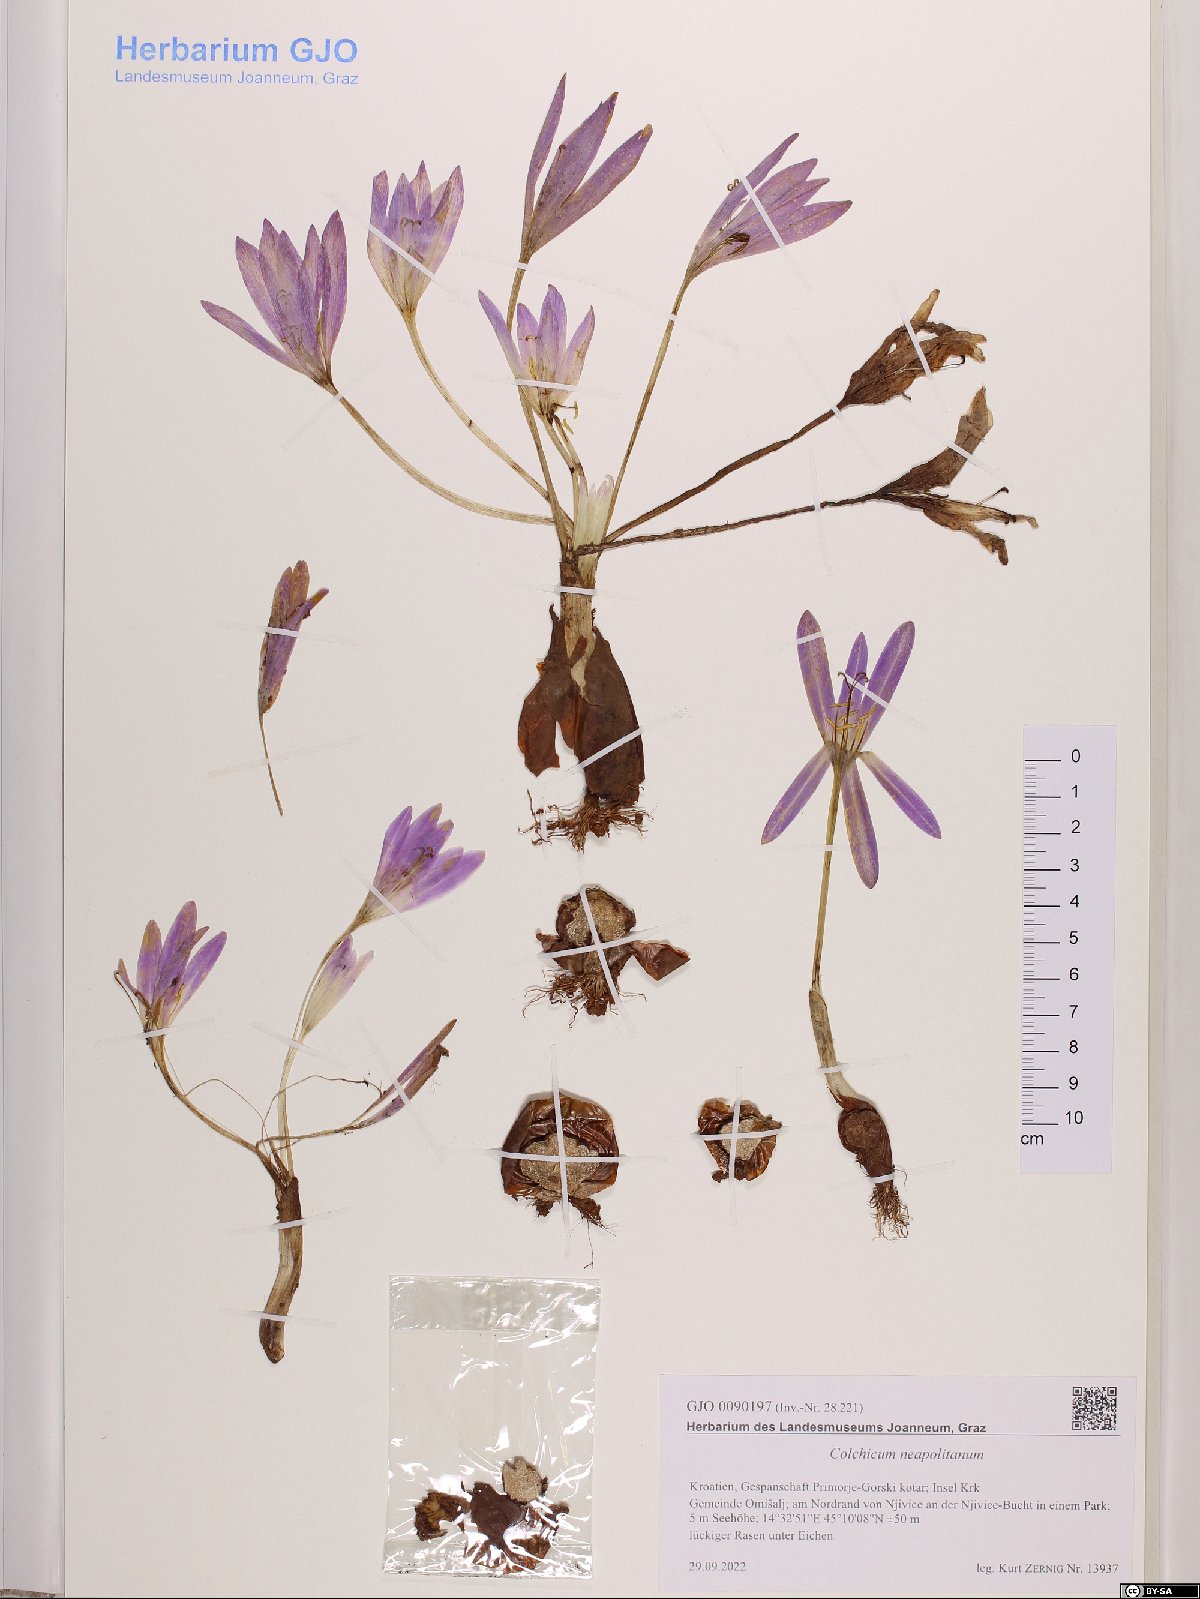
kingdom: Plantae
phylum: Tracheophyta
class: Liliopsida
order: Liliales
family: Colchicaceae
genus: Colchicum
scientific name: Colchicum neapolitanum
